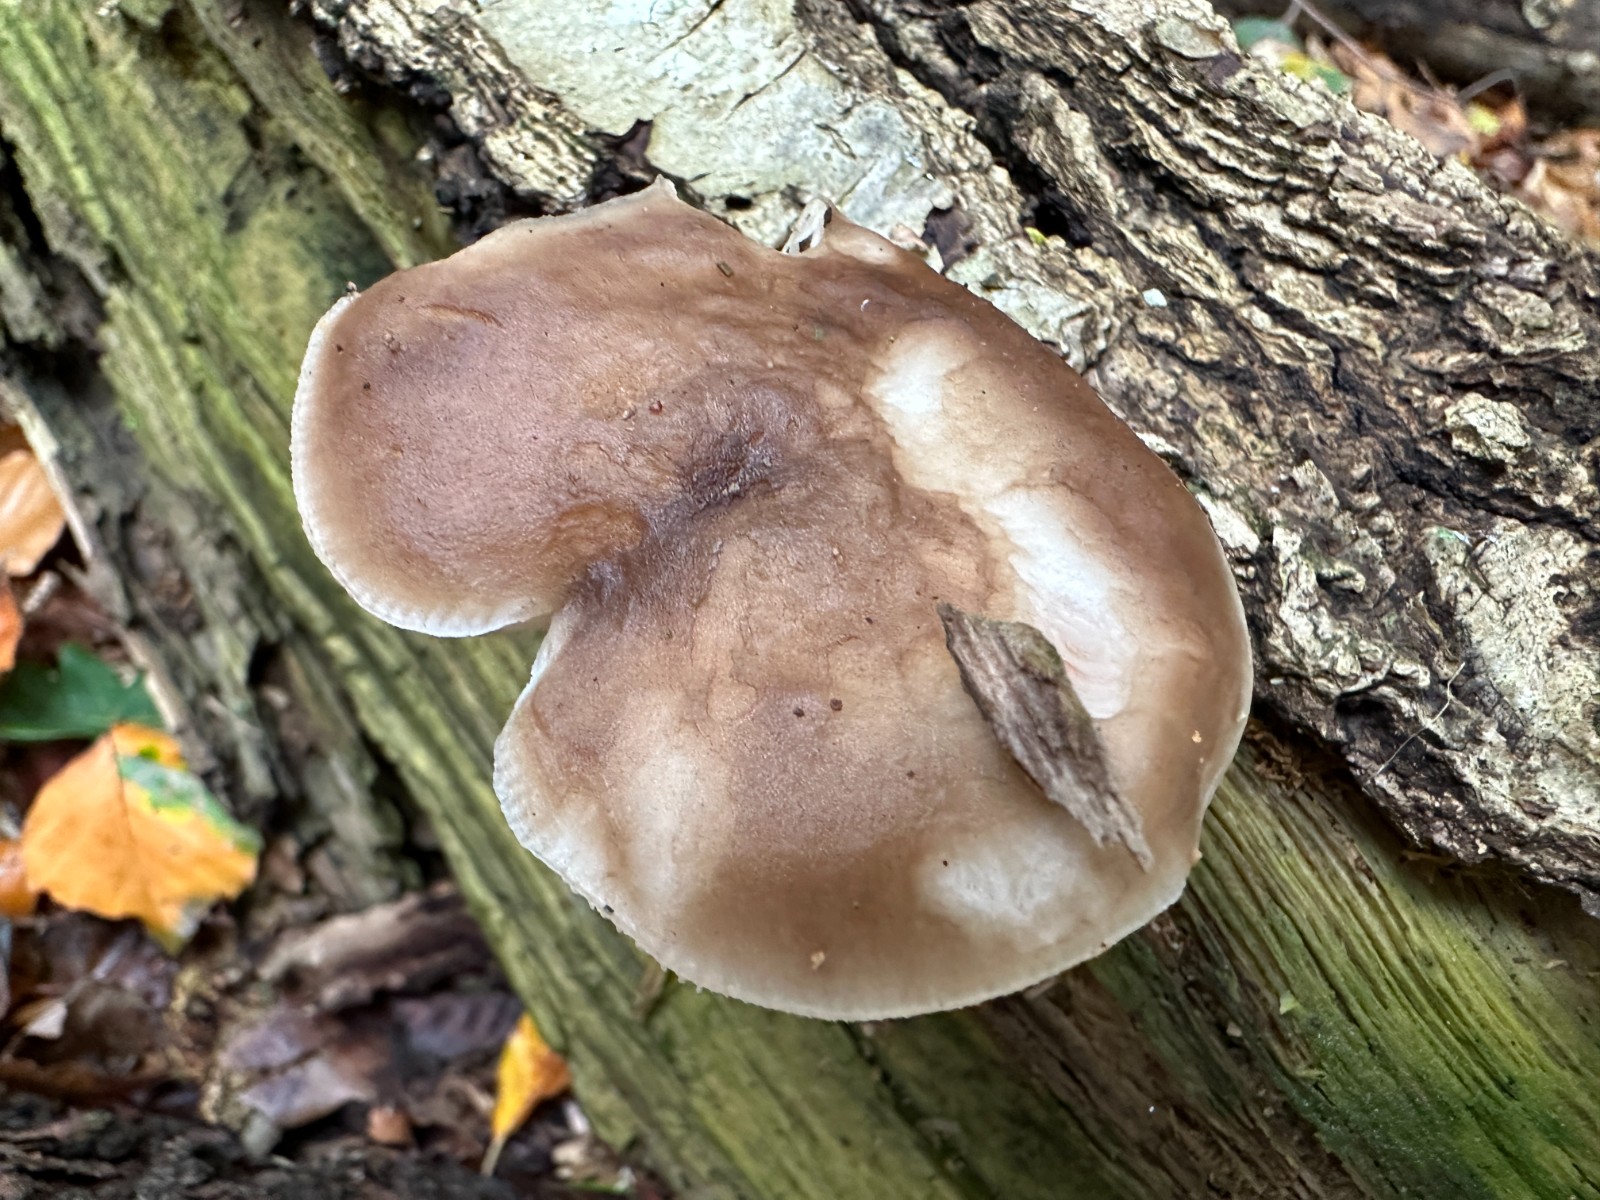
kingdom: Fungi
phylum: Basidiomycota
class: Agaricomycetes
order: Agaricales
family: Pluteaceae
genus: Pluteus
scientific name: Pluteus cervinus
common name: sodfarvet skærmhat
